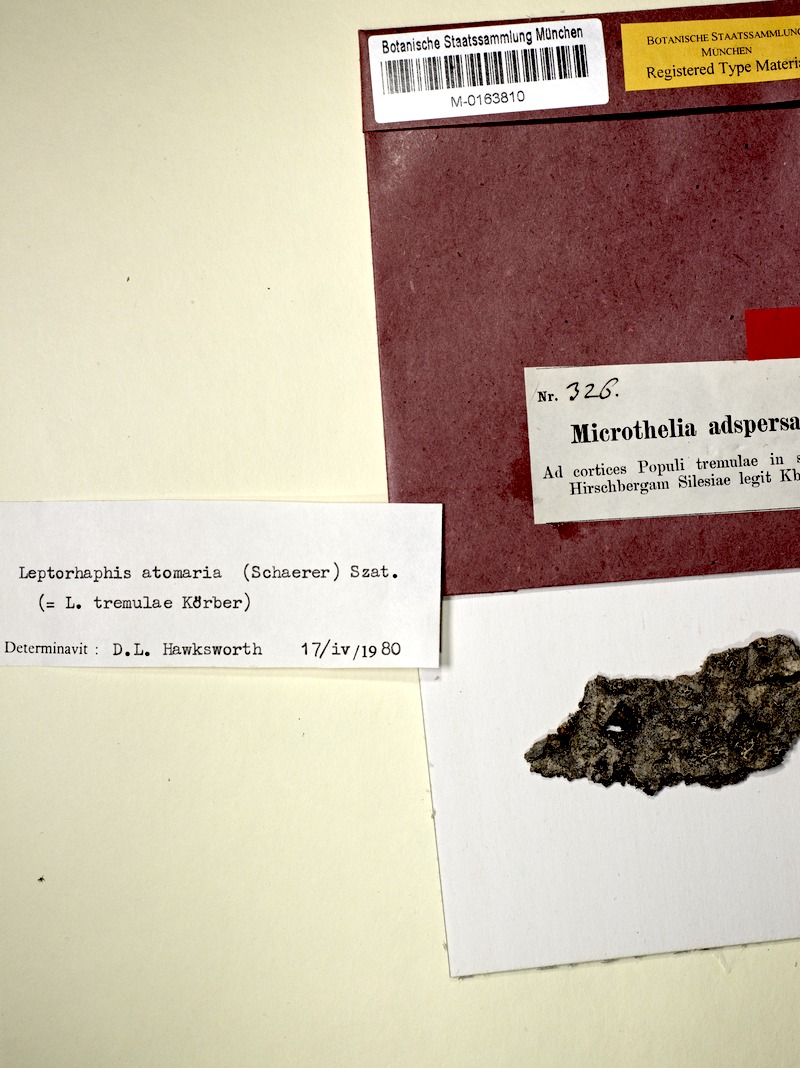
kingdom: Fungi
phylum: Ascomycota
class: Dothideomycetes
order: Pleosporales
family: Naetrocymbaceae
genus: Leptorhaphis
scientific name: Leptorhaphis atomaria
